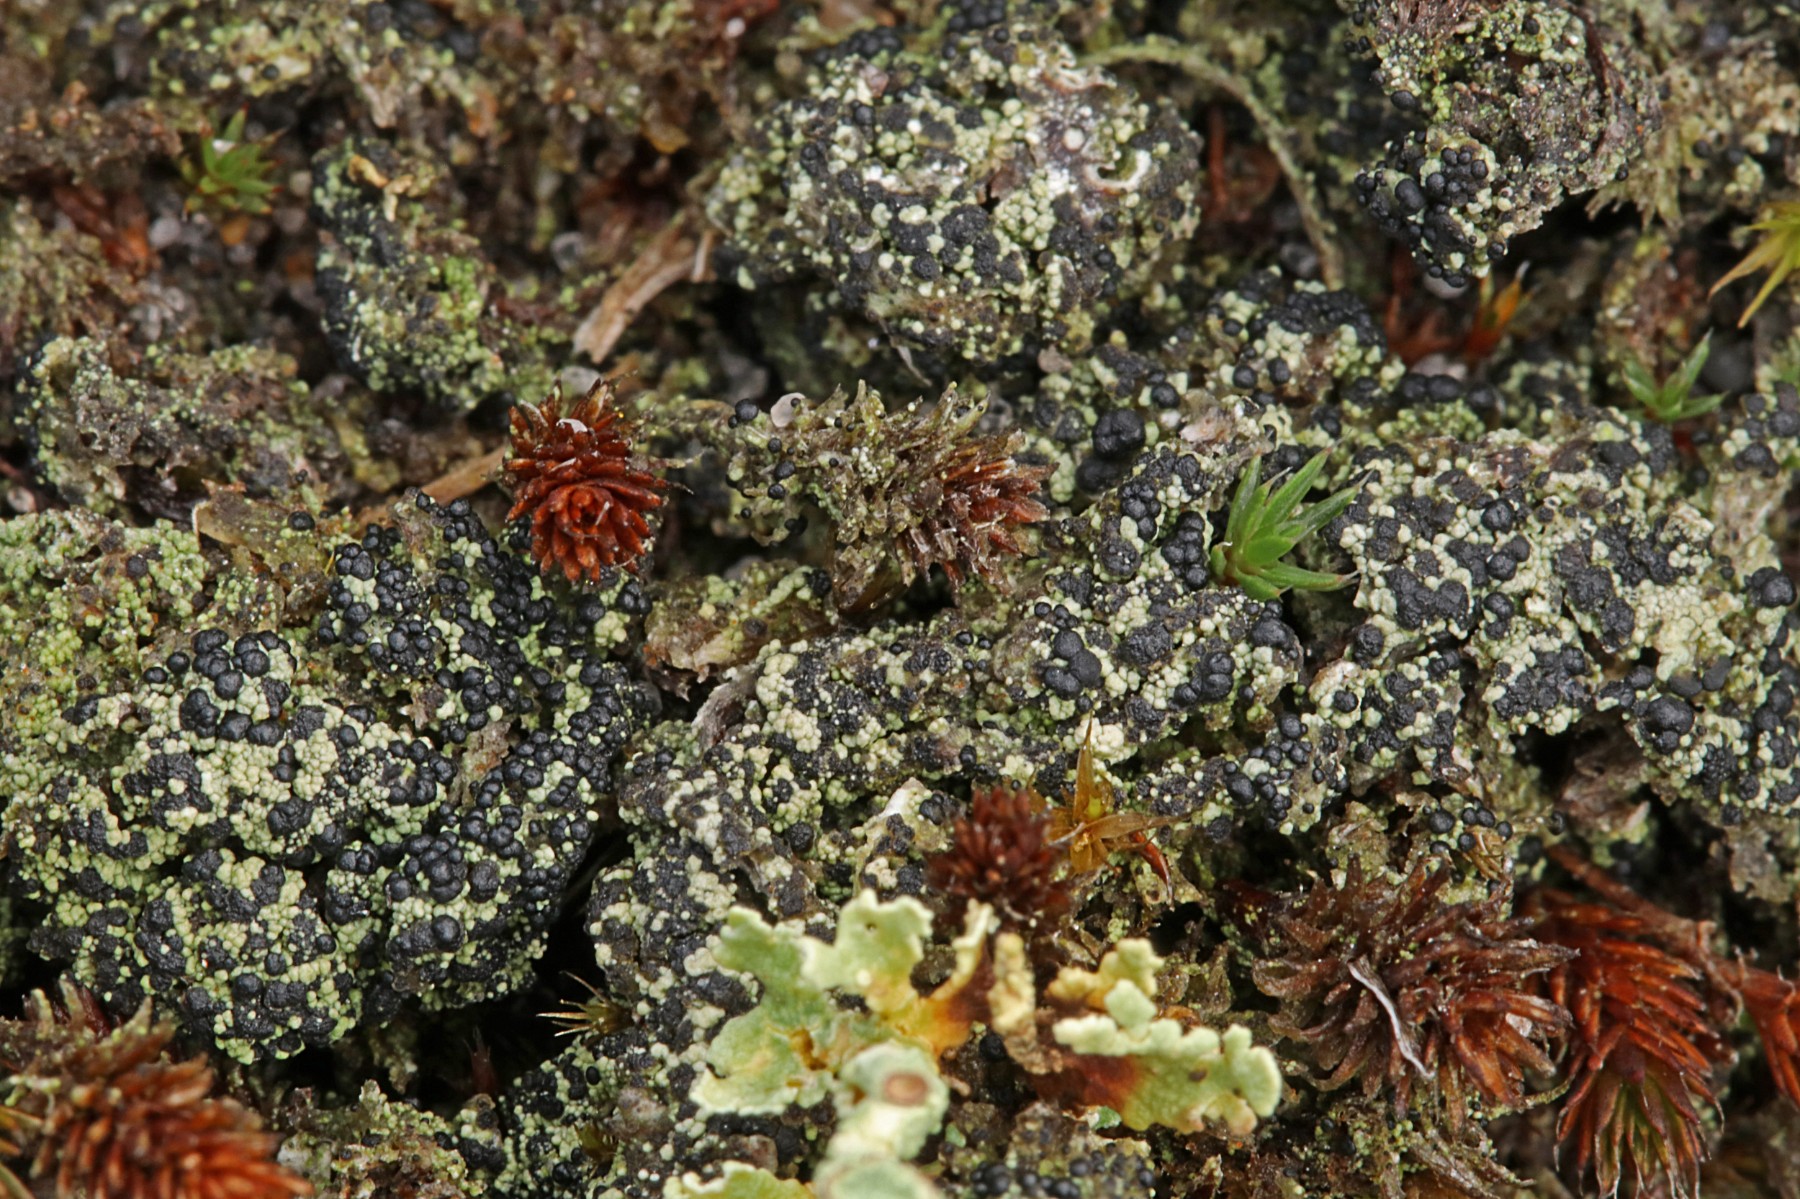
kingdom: Fungi
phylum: Ascomycota
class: Lecanoromycetes
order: Lecanorales
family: Byssolomataceae
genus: Micarea
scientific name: Micarea lignaria
